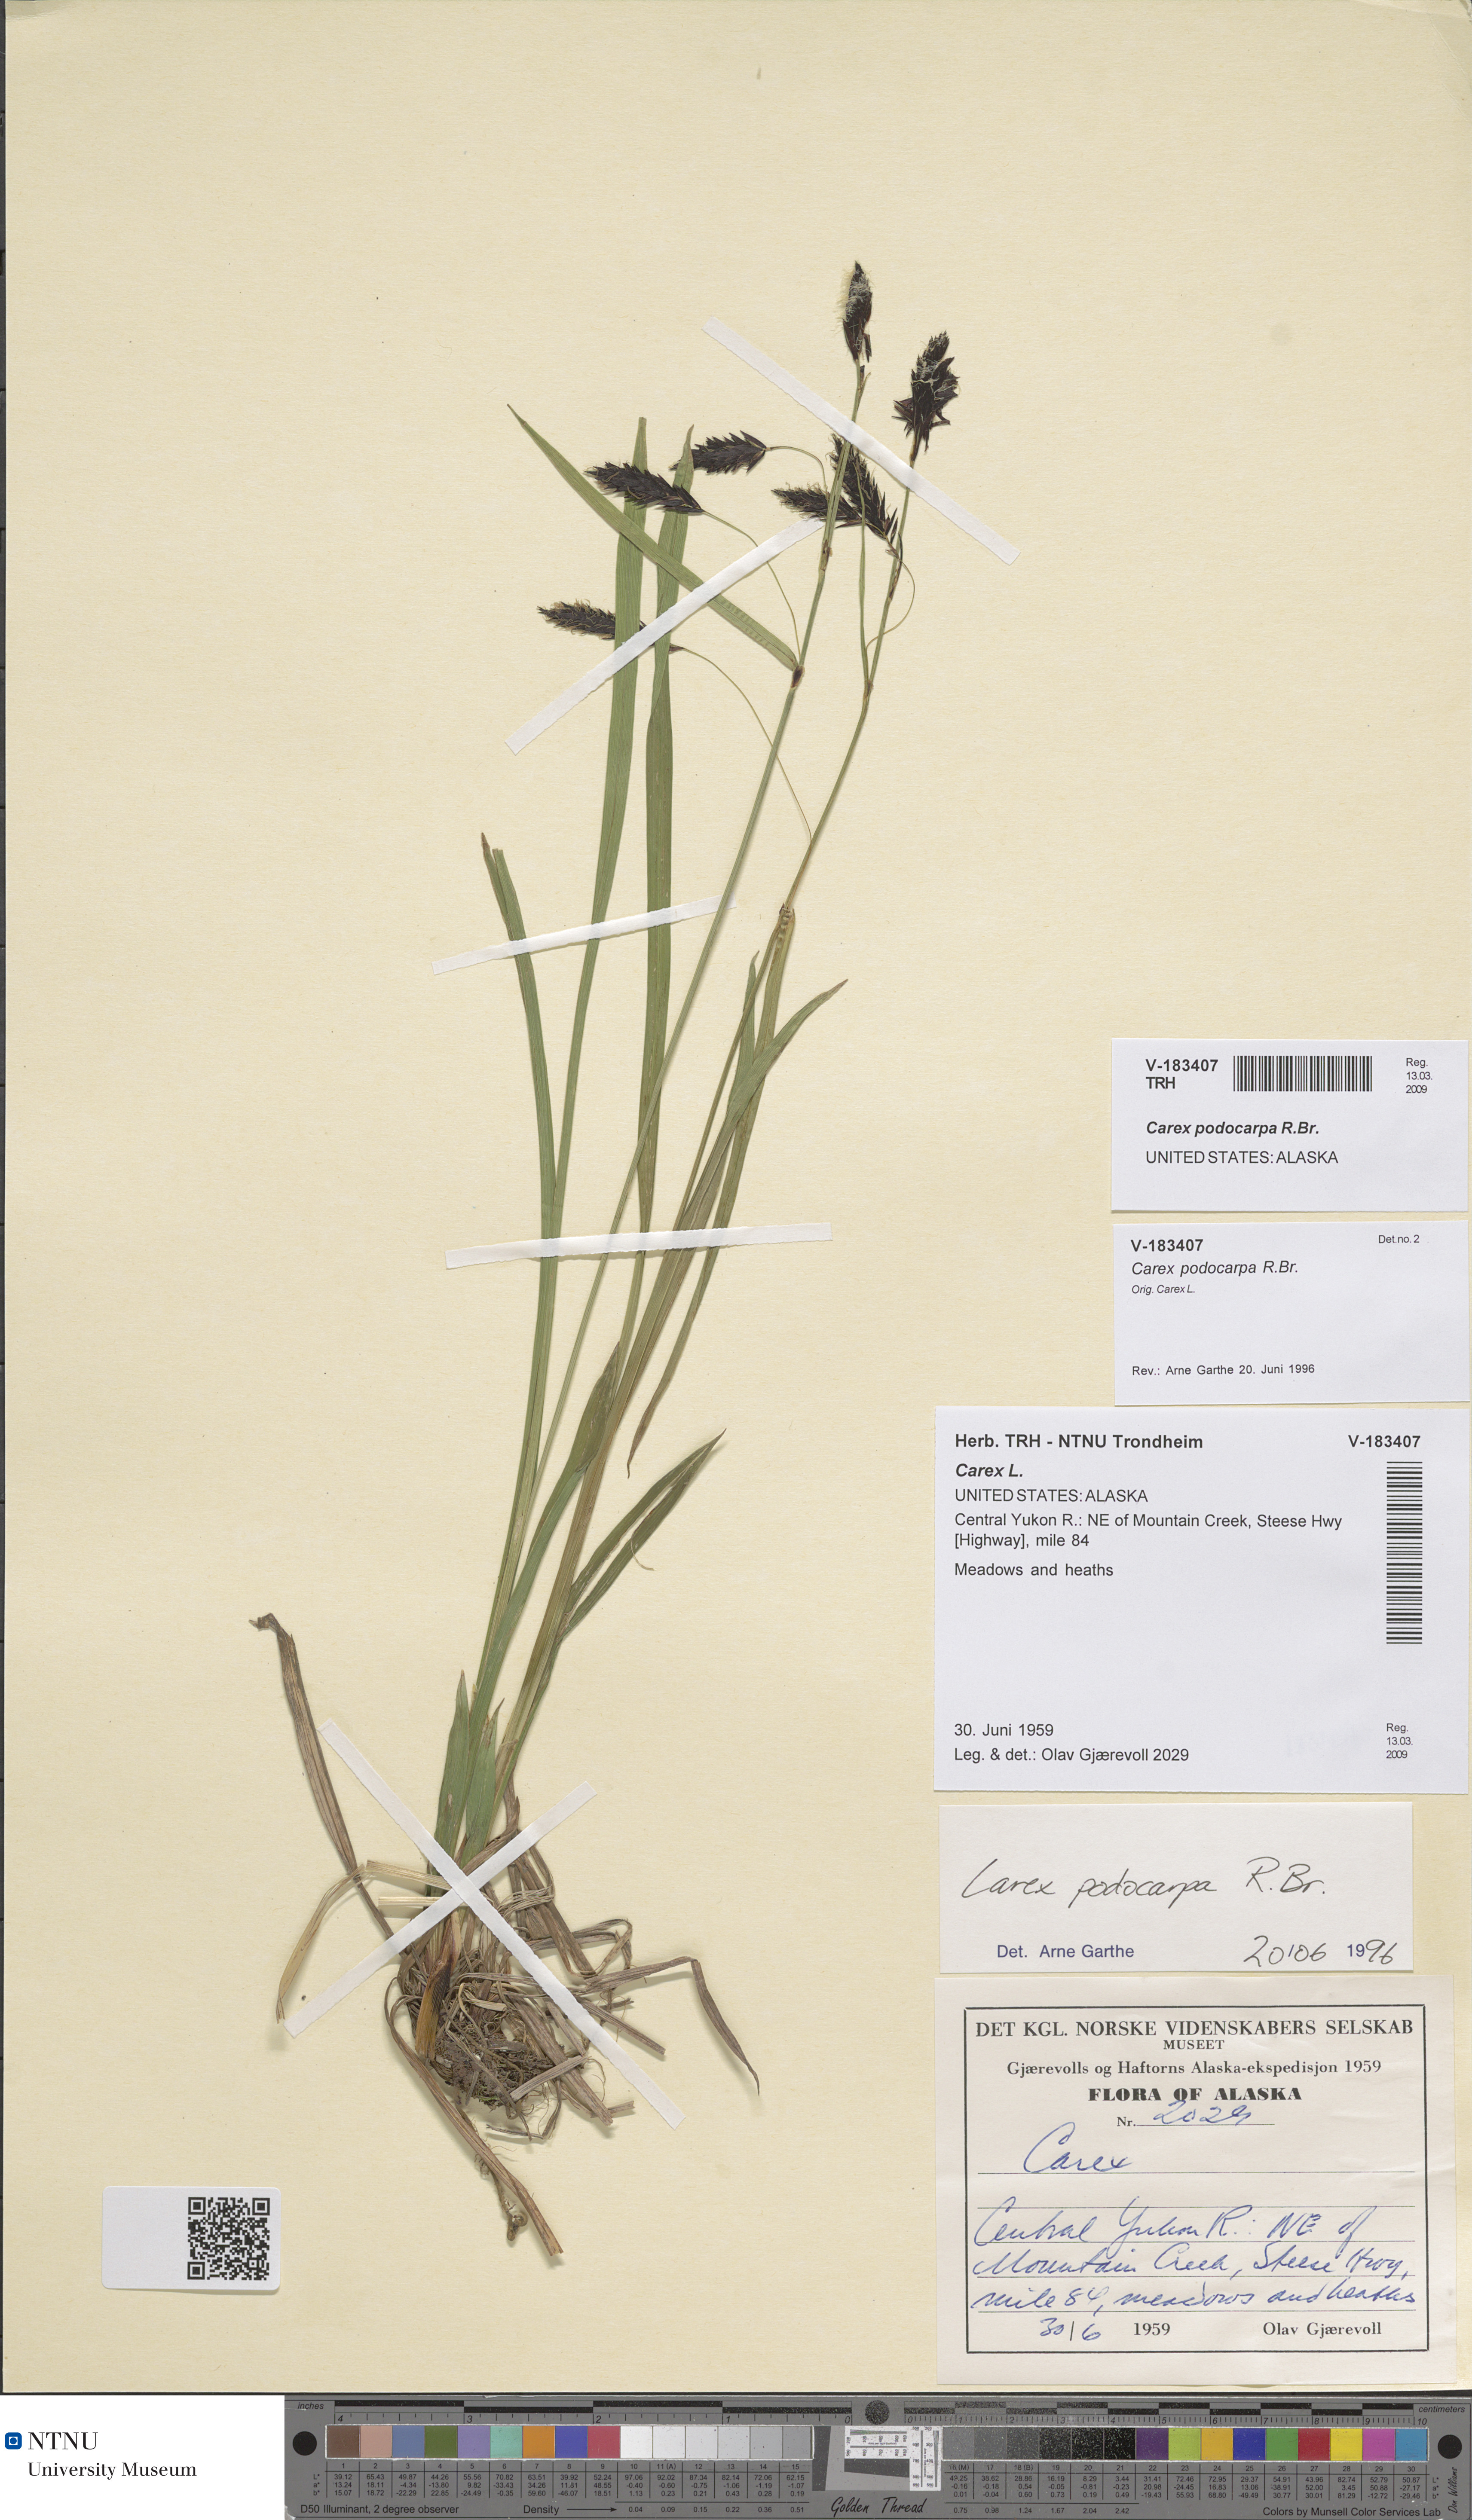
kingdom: Plantae
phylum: Tracheophyta
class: Liliopsida
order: Poales
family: Cyperaceae
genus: Carex
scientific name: Carex podocarpa
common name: Alpine sedge
